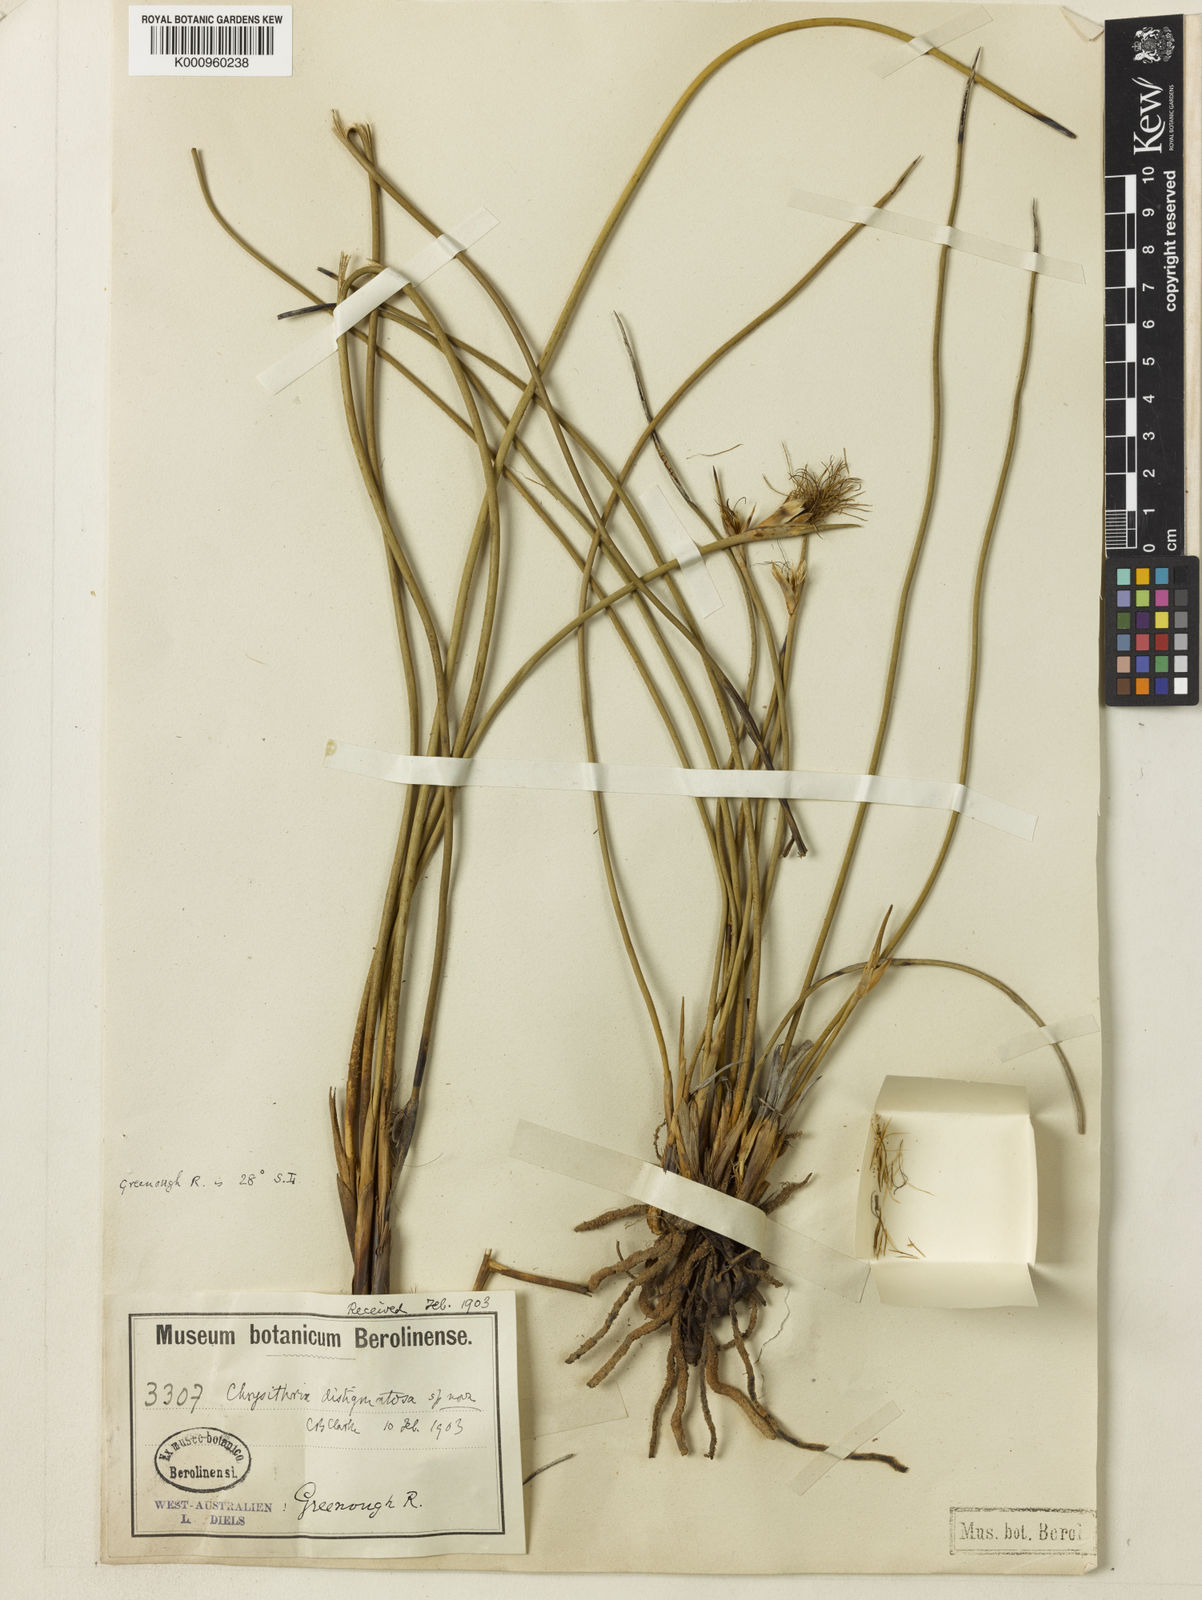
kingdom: Plantae
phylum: Tracheophyta
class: Liliopsida
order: Poales
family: Cyperaceae
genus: Chrysitrix
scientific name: Chrysitrix distigmatosa
